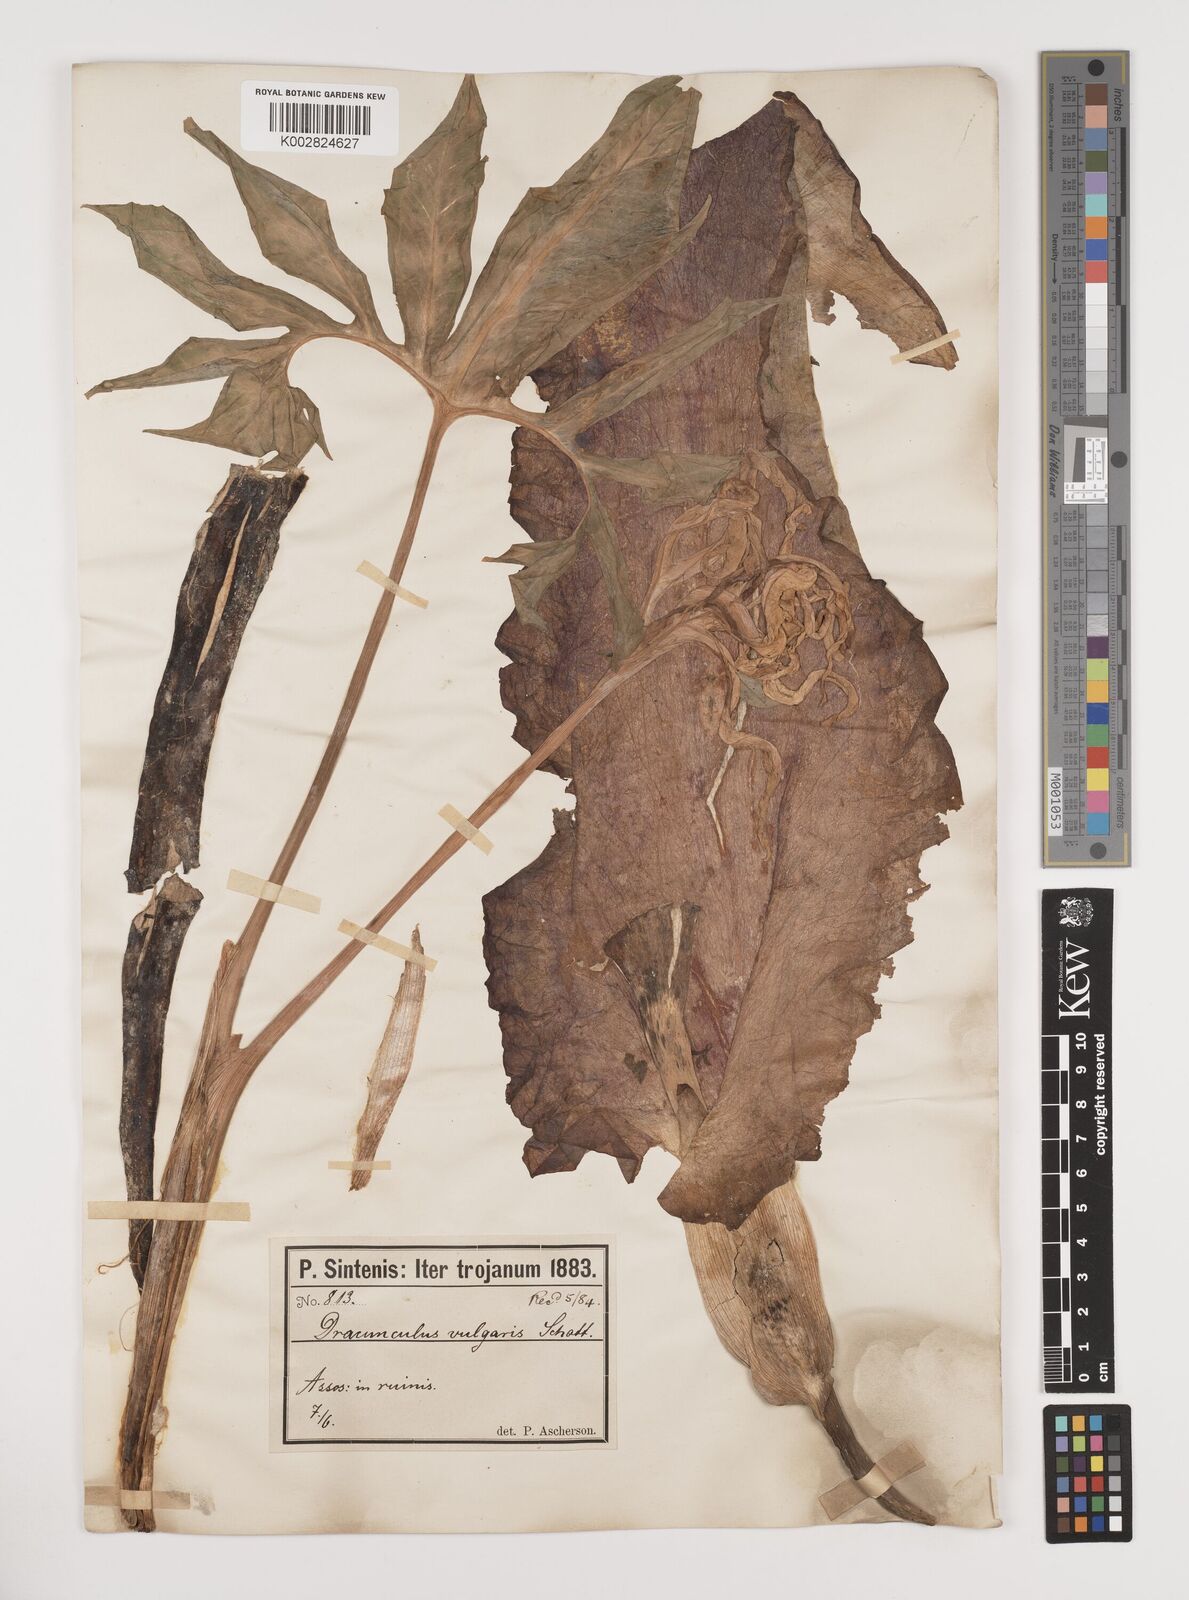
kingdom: Plantae
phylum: Tracheophyta
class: Liliopsida
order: Alismatales
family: Araceae
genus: Dracunculus
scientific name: Dracunculus vulgaris
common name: Dragon arum
